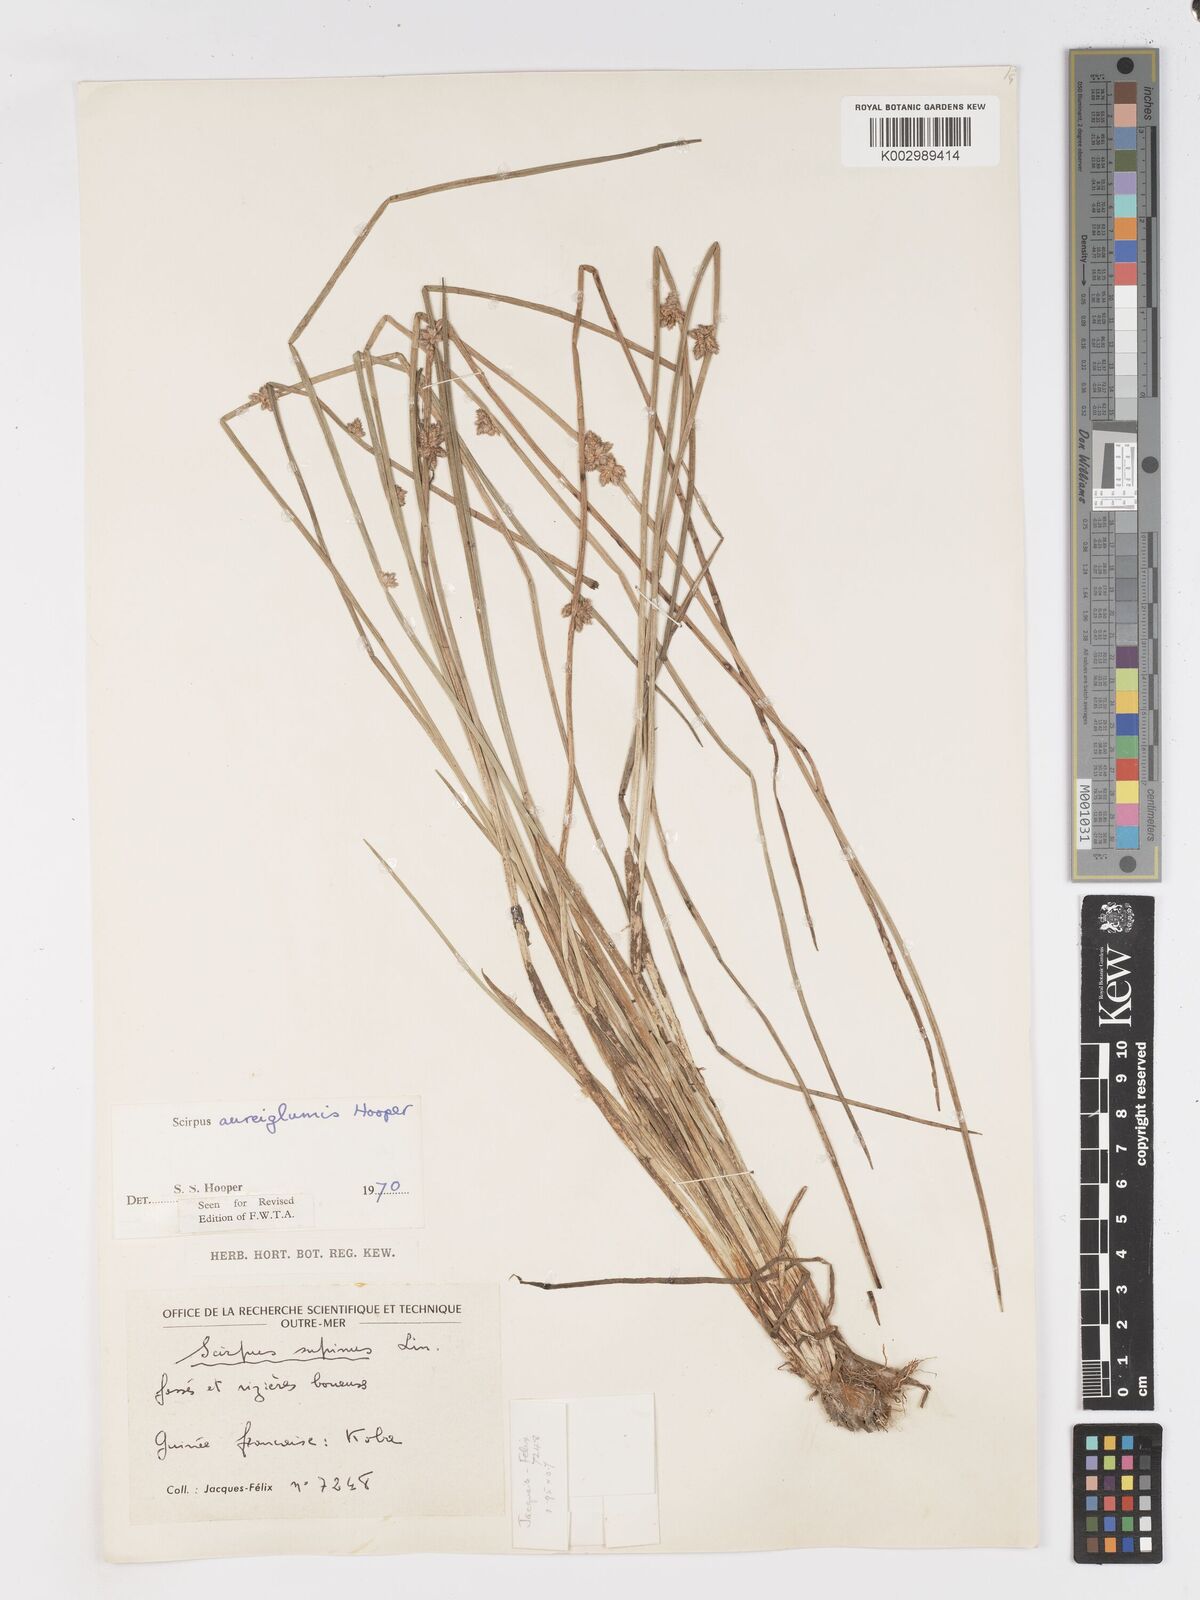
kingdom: Plantae
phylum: Tracheophyta
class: Liliopsida
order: Poales
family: Cyperaceae
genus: Schoenoplectus
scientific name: Schoenoplectus
